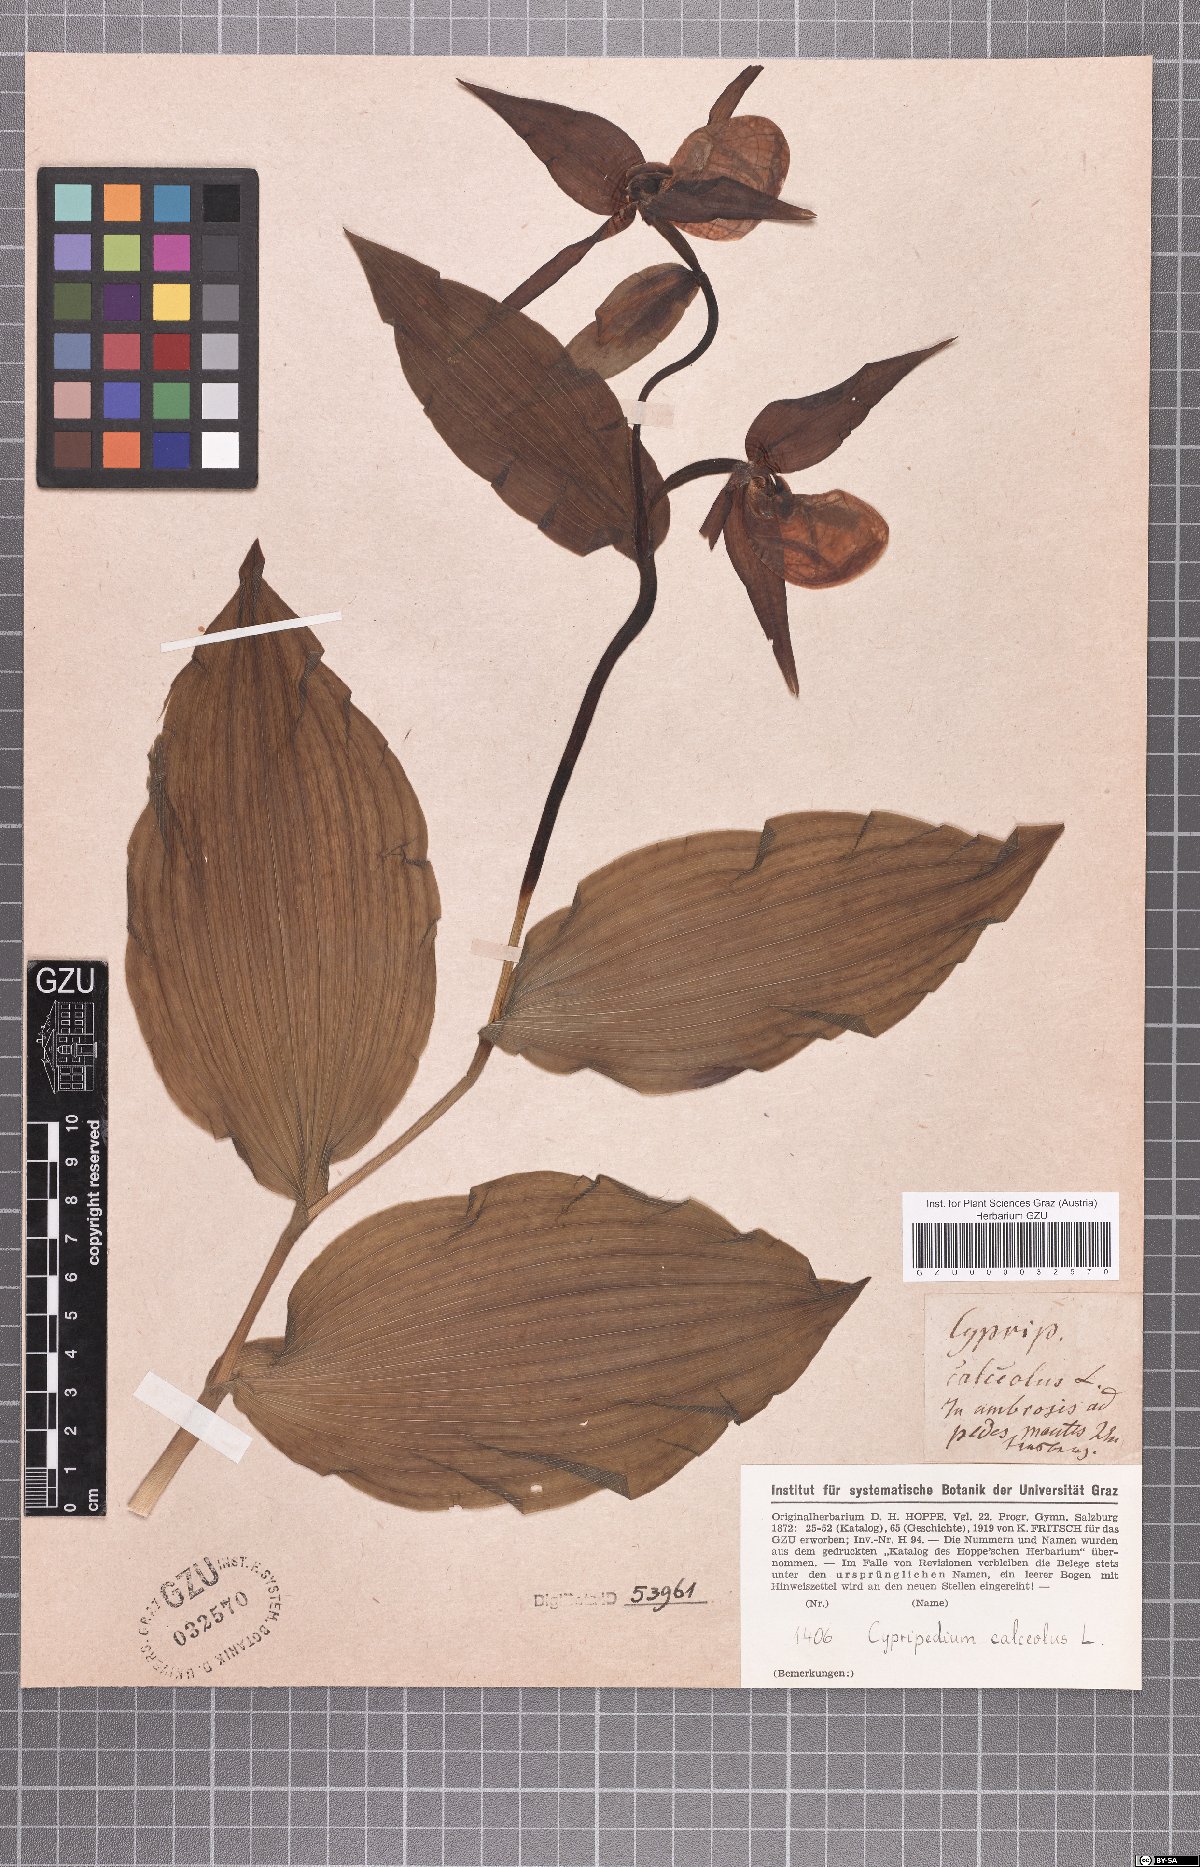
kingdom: Plantae
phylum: Tracheophyta
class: Liliopsida
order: Asparagales
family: Orchidaceae
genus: Cypripedium
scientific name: Cypripedium calceolus
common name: Lady's-slipper
